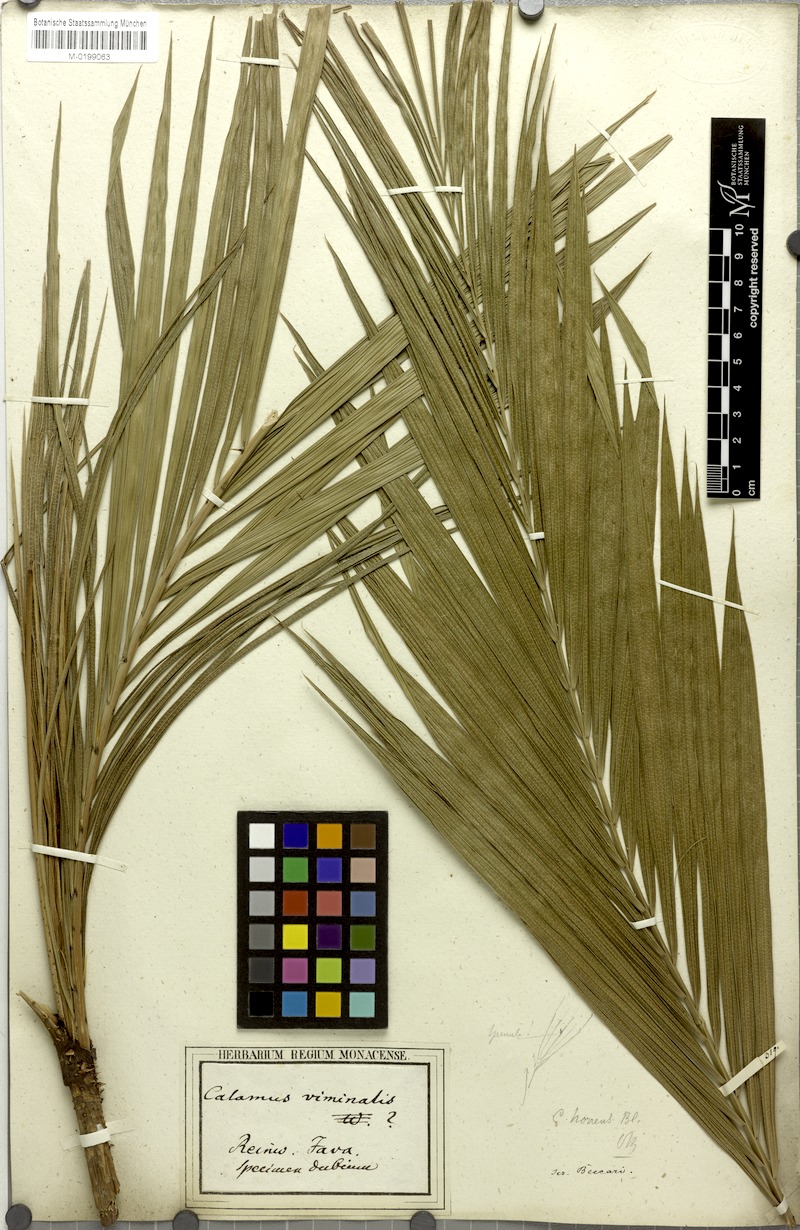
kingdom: Plantae
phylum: Tracheophyta
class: Liliopsida
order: Arecales
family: Arecaceae
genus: Calamus
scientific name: Calamus tenuis
